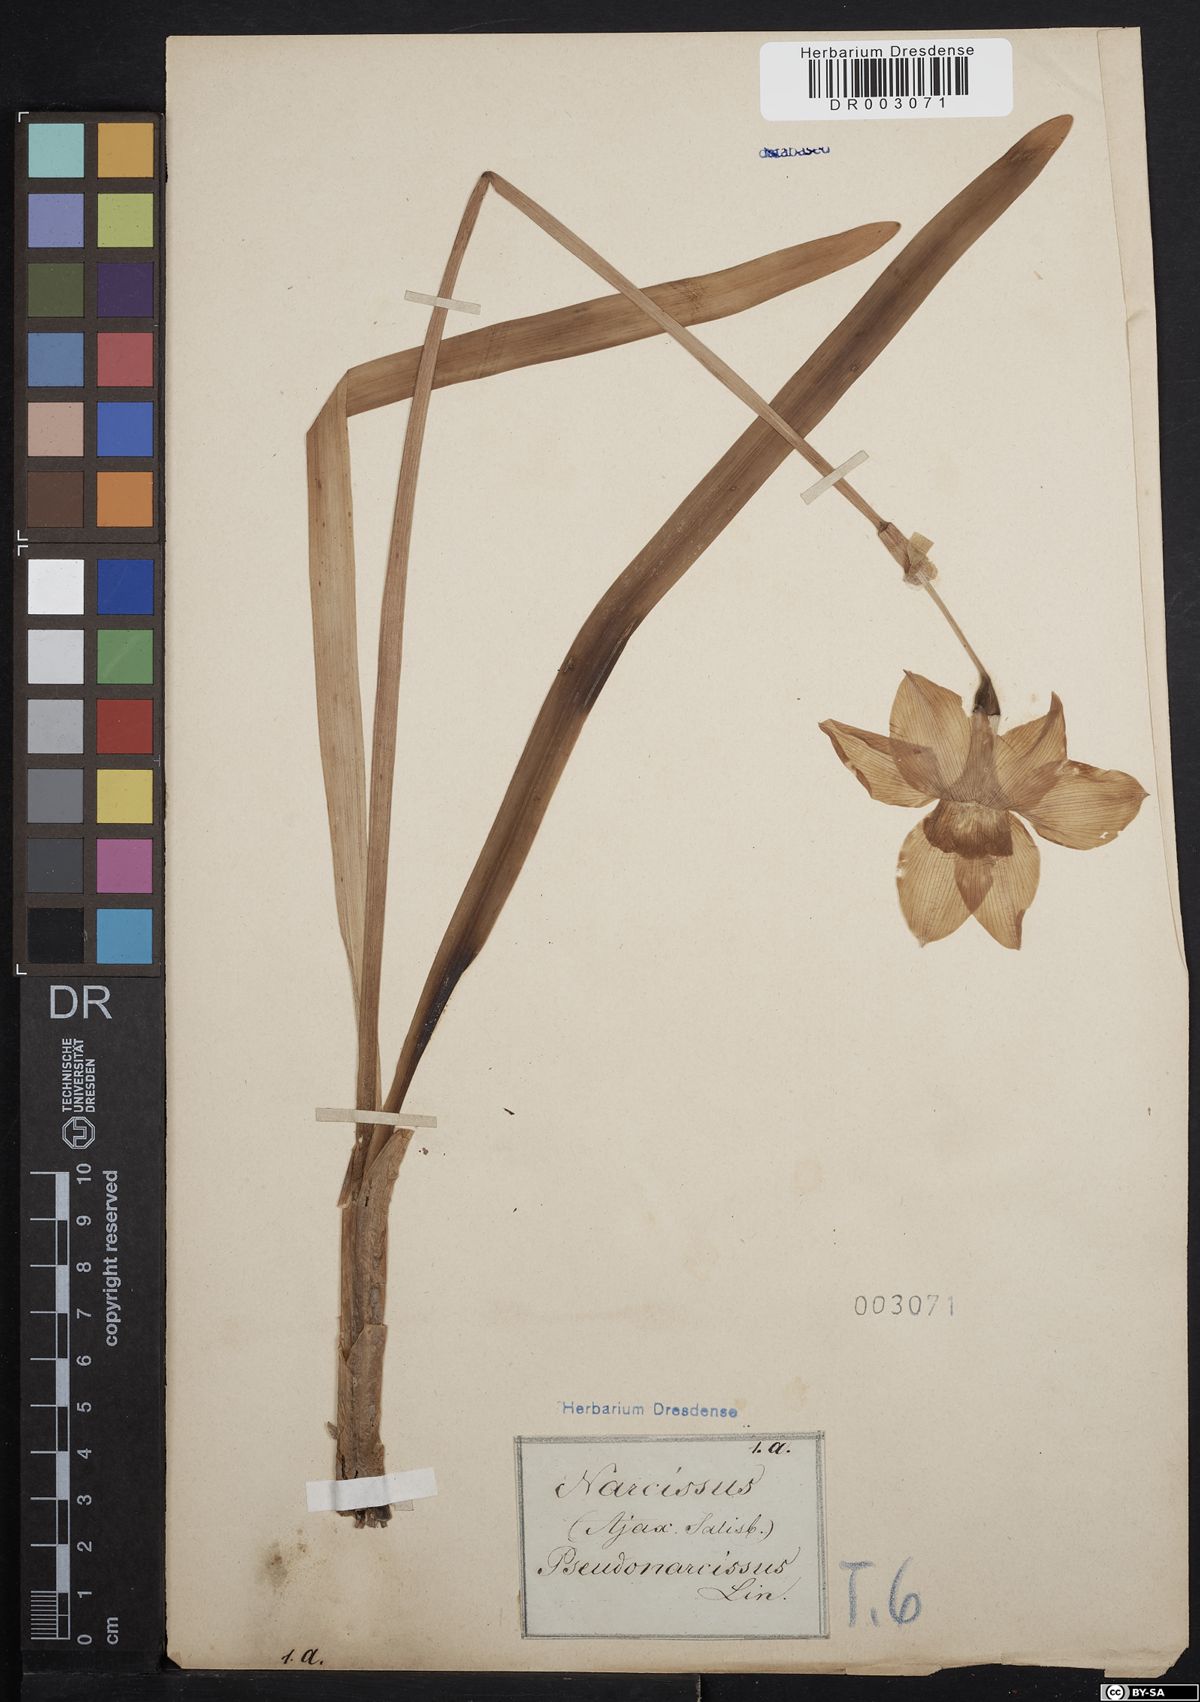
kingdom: Plantae
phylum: Tracheophyta
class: Liliopsida
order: Asparagales
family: Amaryllidaceae
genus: Narcissus
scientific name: Narcissus pseudonarcissus
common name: Daffodil
